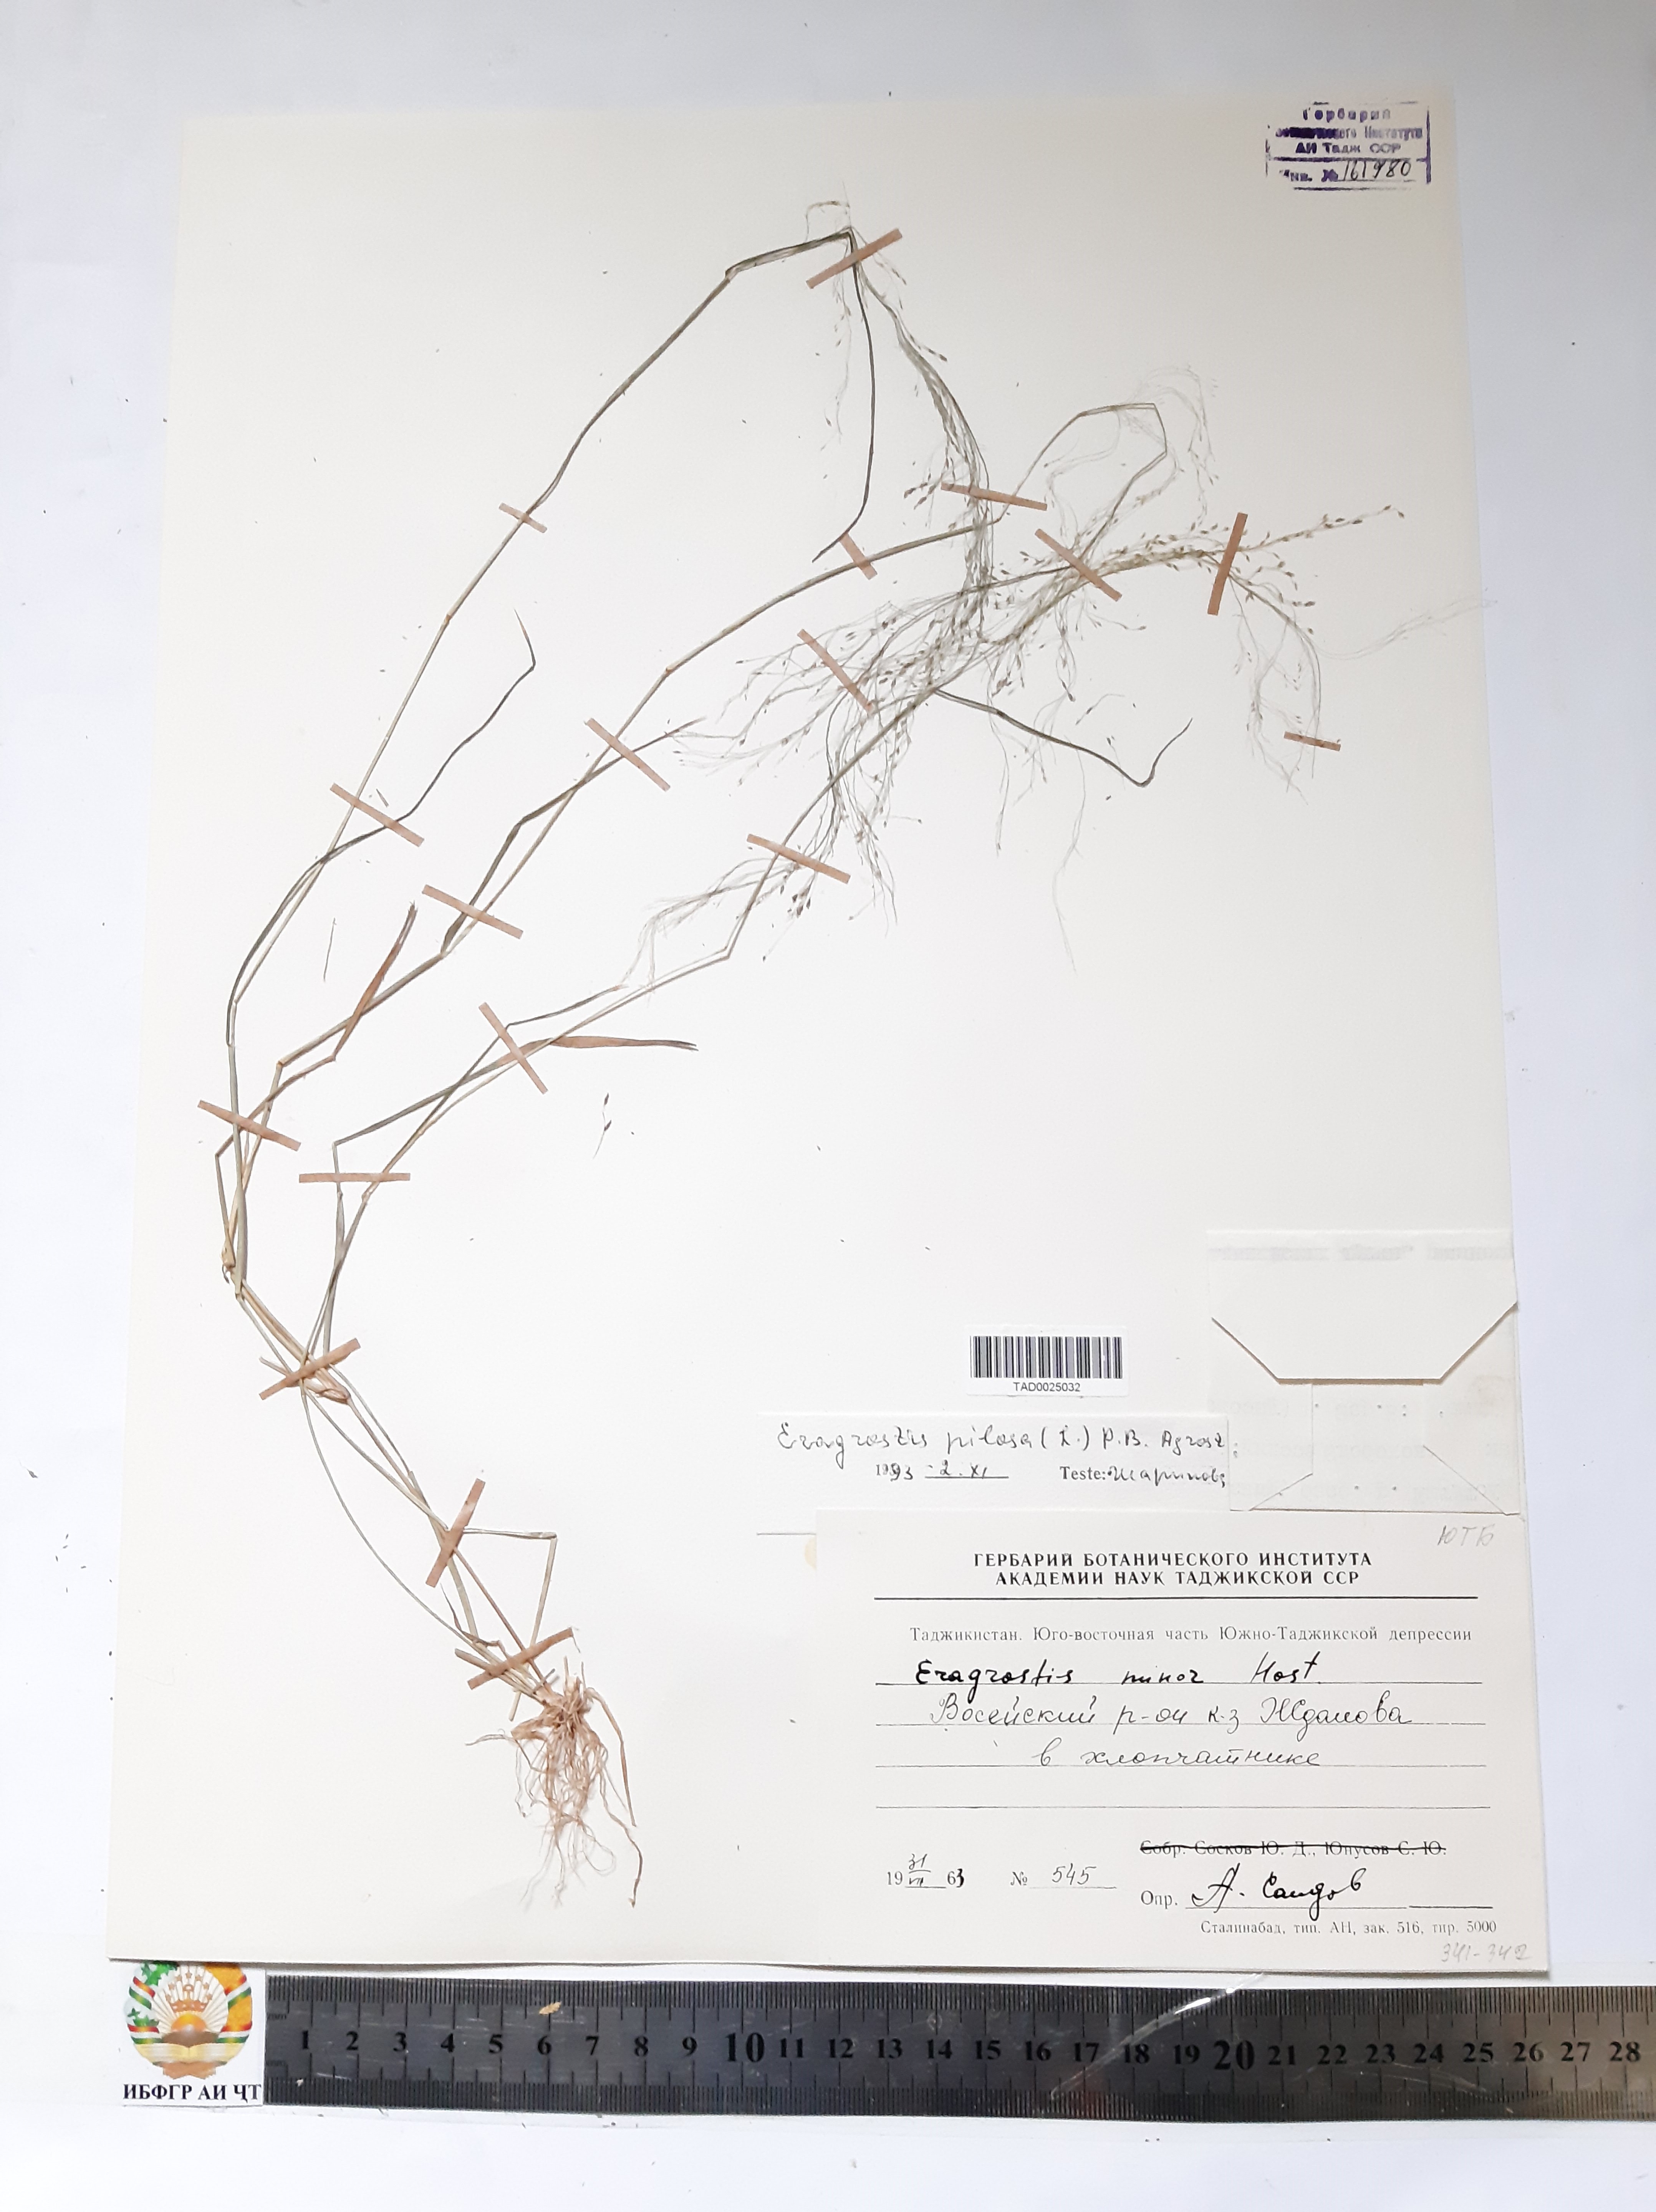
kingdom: Plantae
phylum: Tracheophyta
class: Liliopsida
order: Poales
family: Poaceae
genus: Eragrostis
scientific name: Eragrostis pilosa
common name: Indian lovegrass
